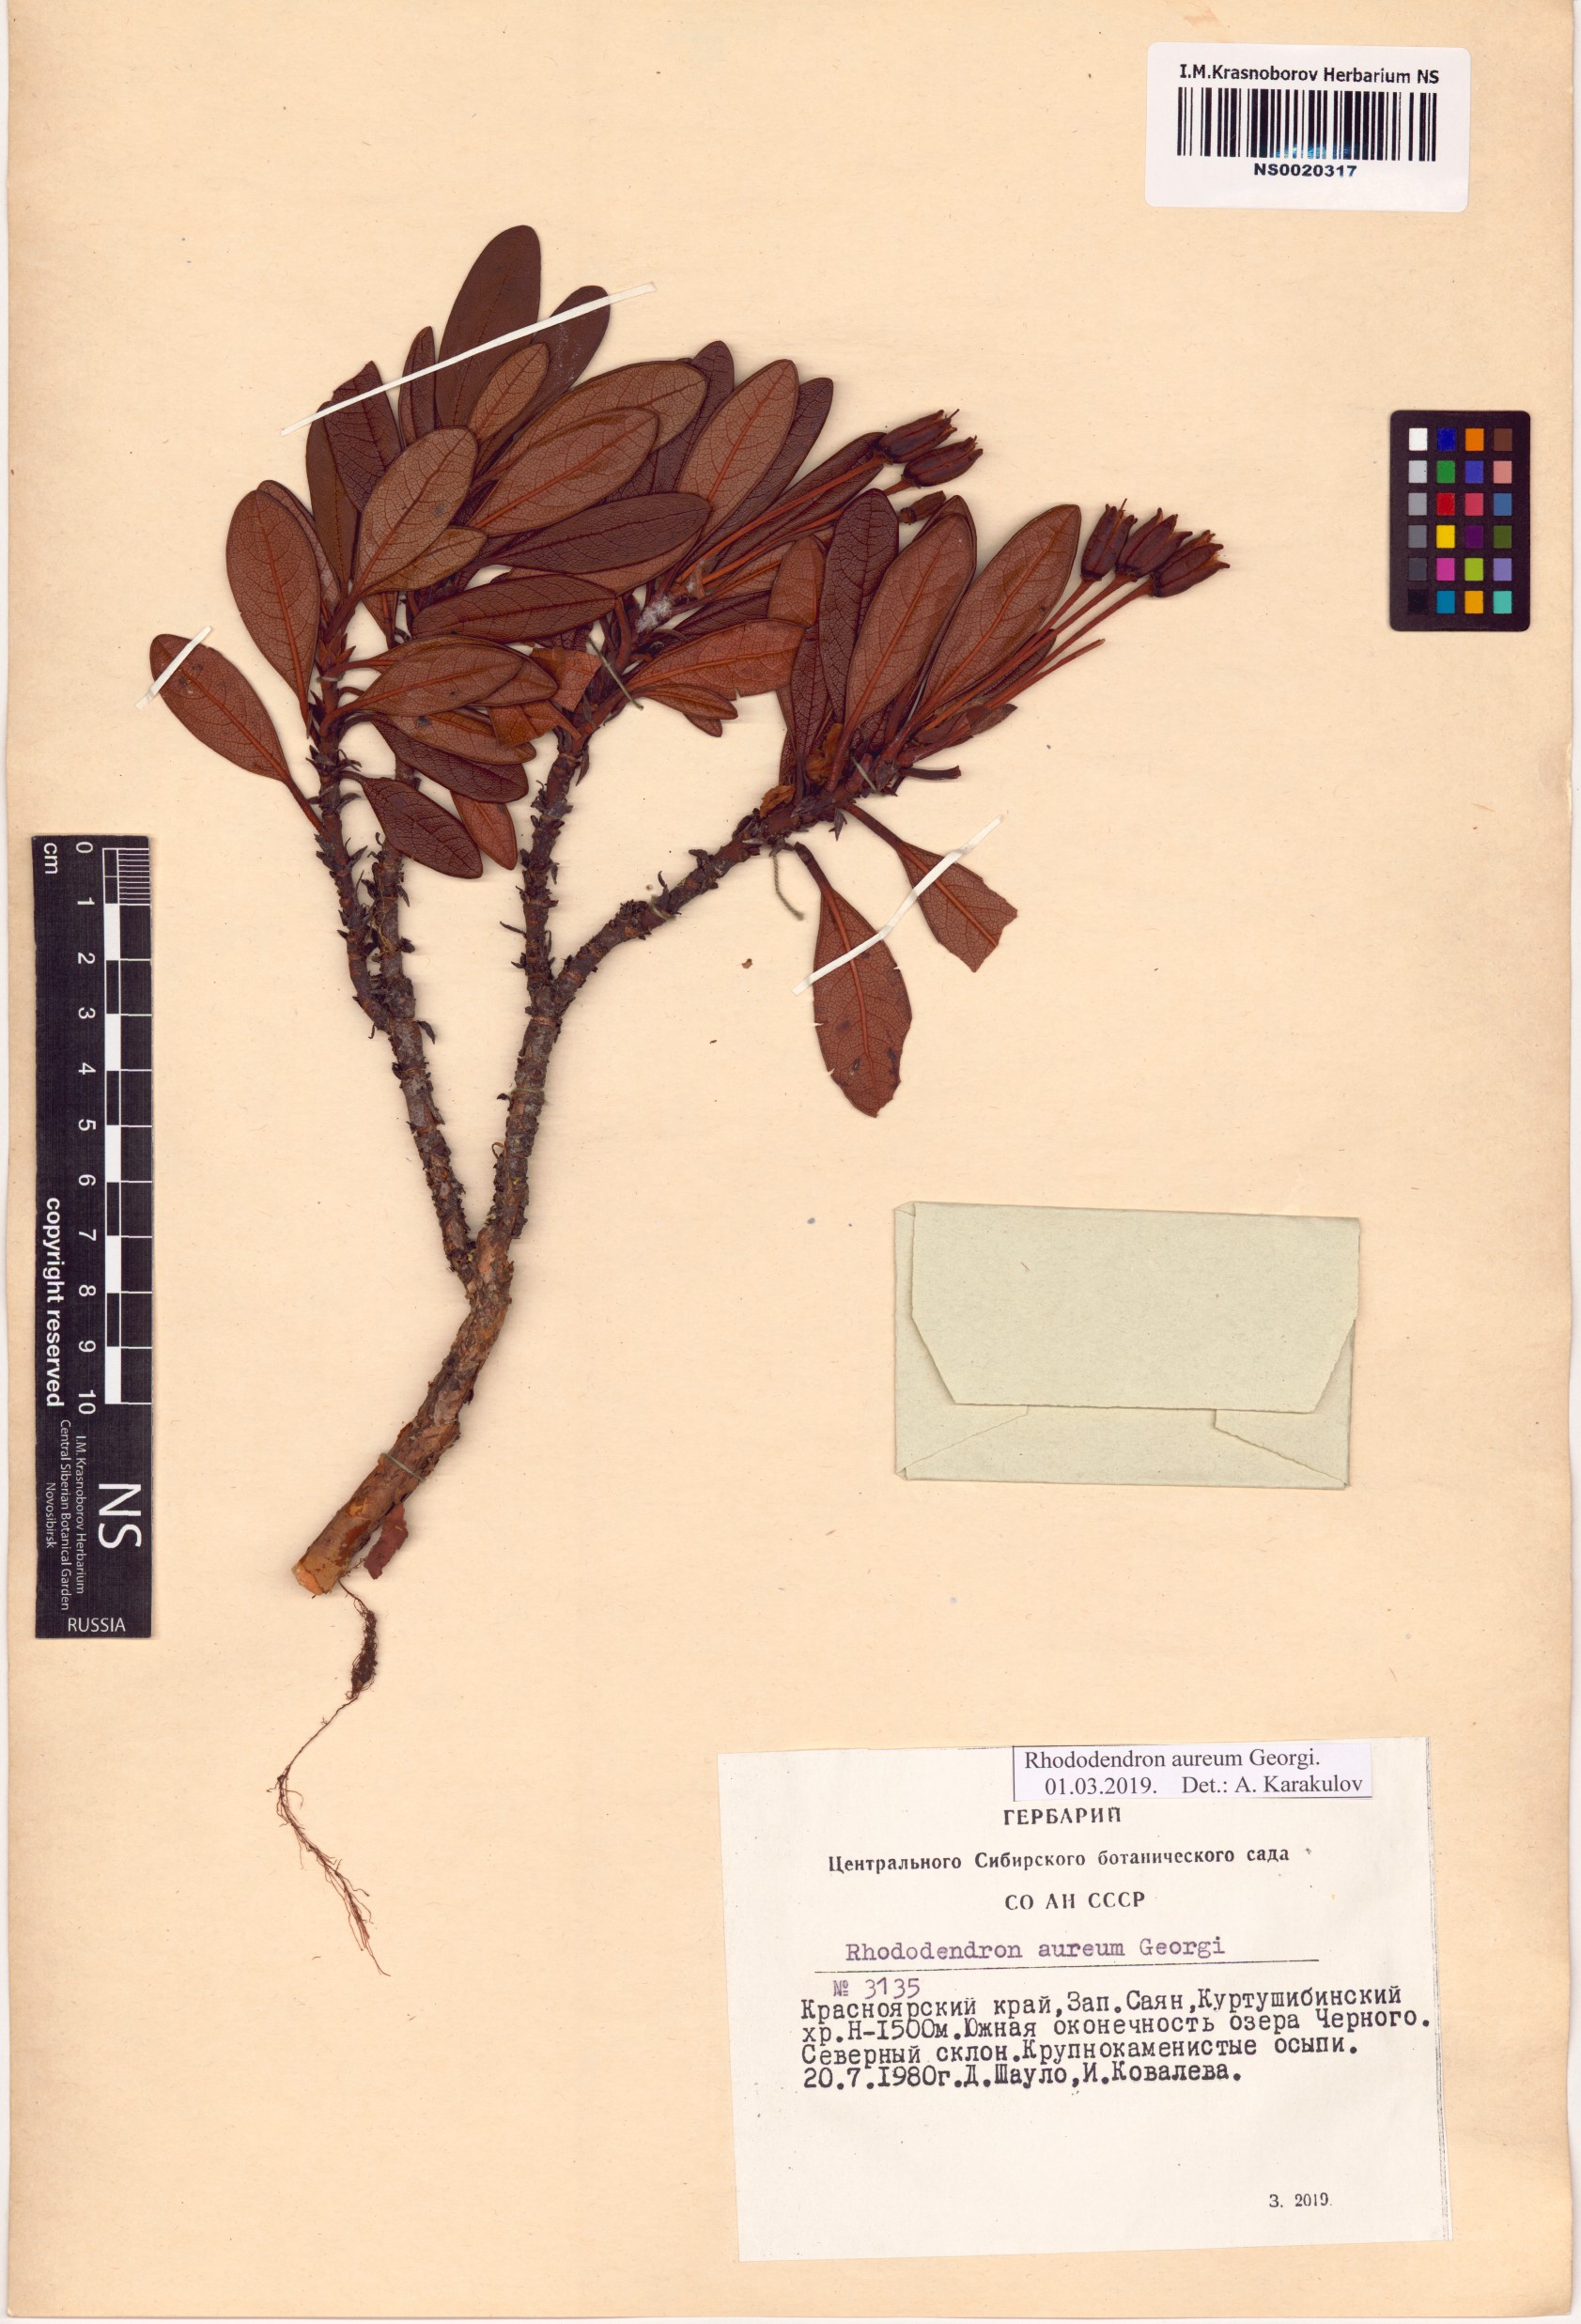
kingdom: Plantae
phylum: Tracheophyta
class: Magnoliopsida
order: Ericales
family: Ericaceae
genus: Rhododendron
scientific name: Rhododendron aureum
